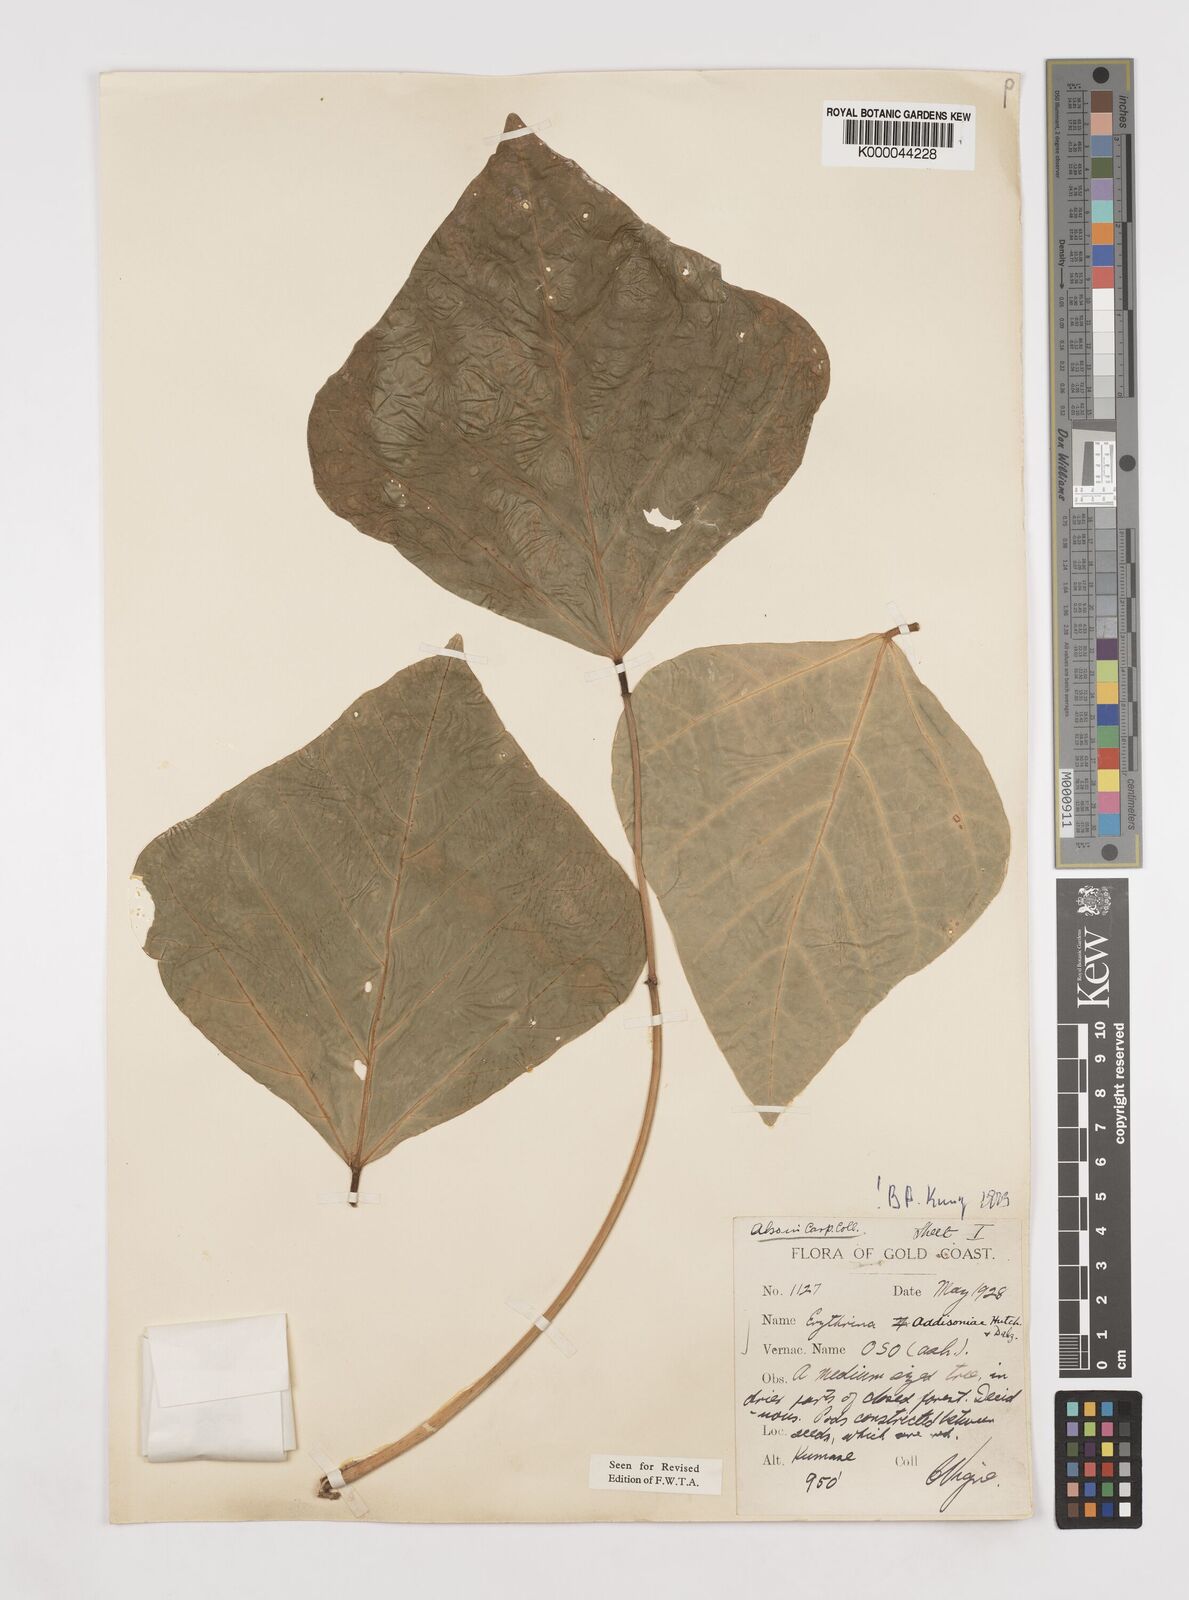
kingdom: Plantae
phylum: Tracheophyta
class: Magnoliopsida
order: Fabales
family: Fabaceae
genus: Erythrina
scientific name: Erythrina addisoniae
